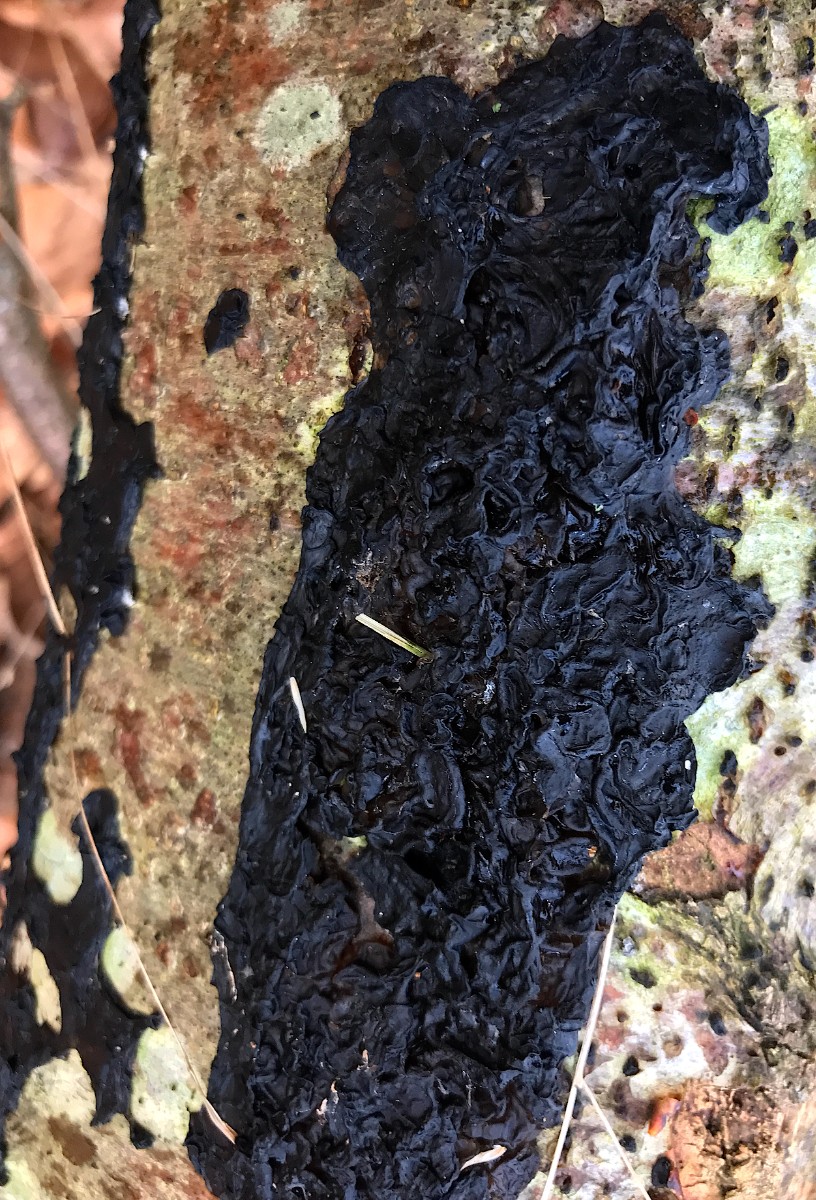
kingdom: Fungi
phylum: Basidiomycota
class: Agaricomycetes
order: Auriculariales
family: Auriculariaceae
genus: Exidia
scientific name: Exidia nigricans
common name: almindelig bævretop
